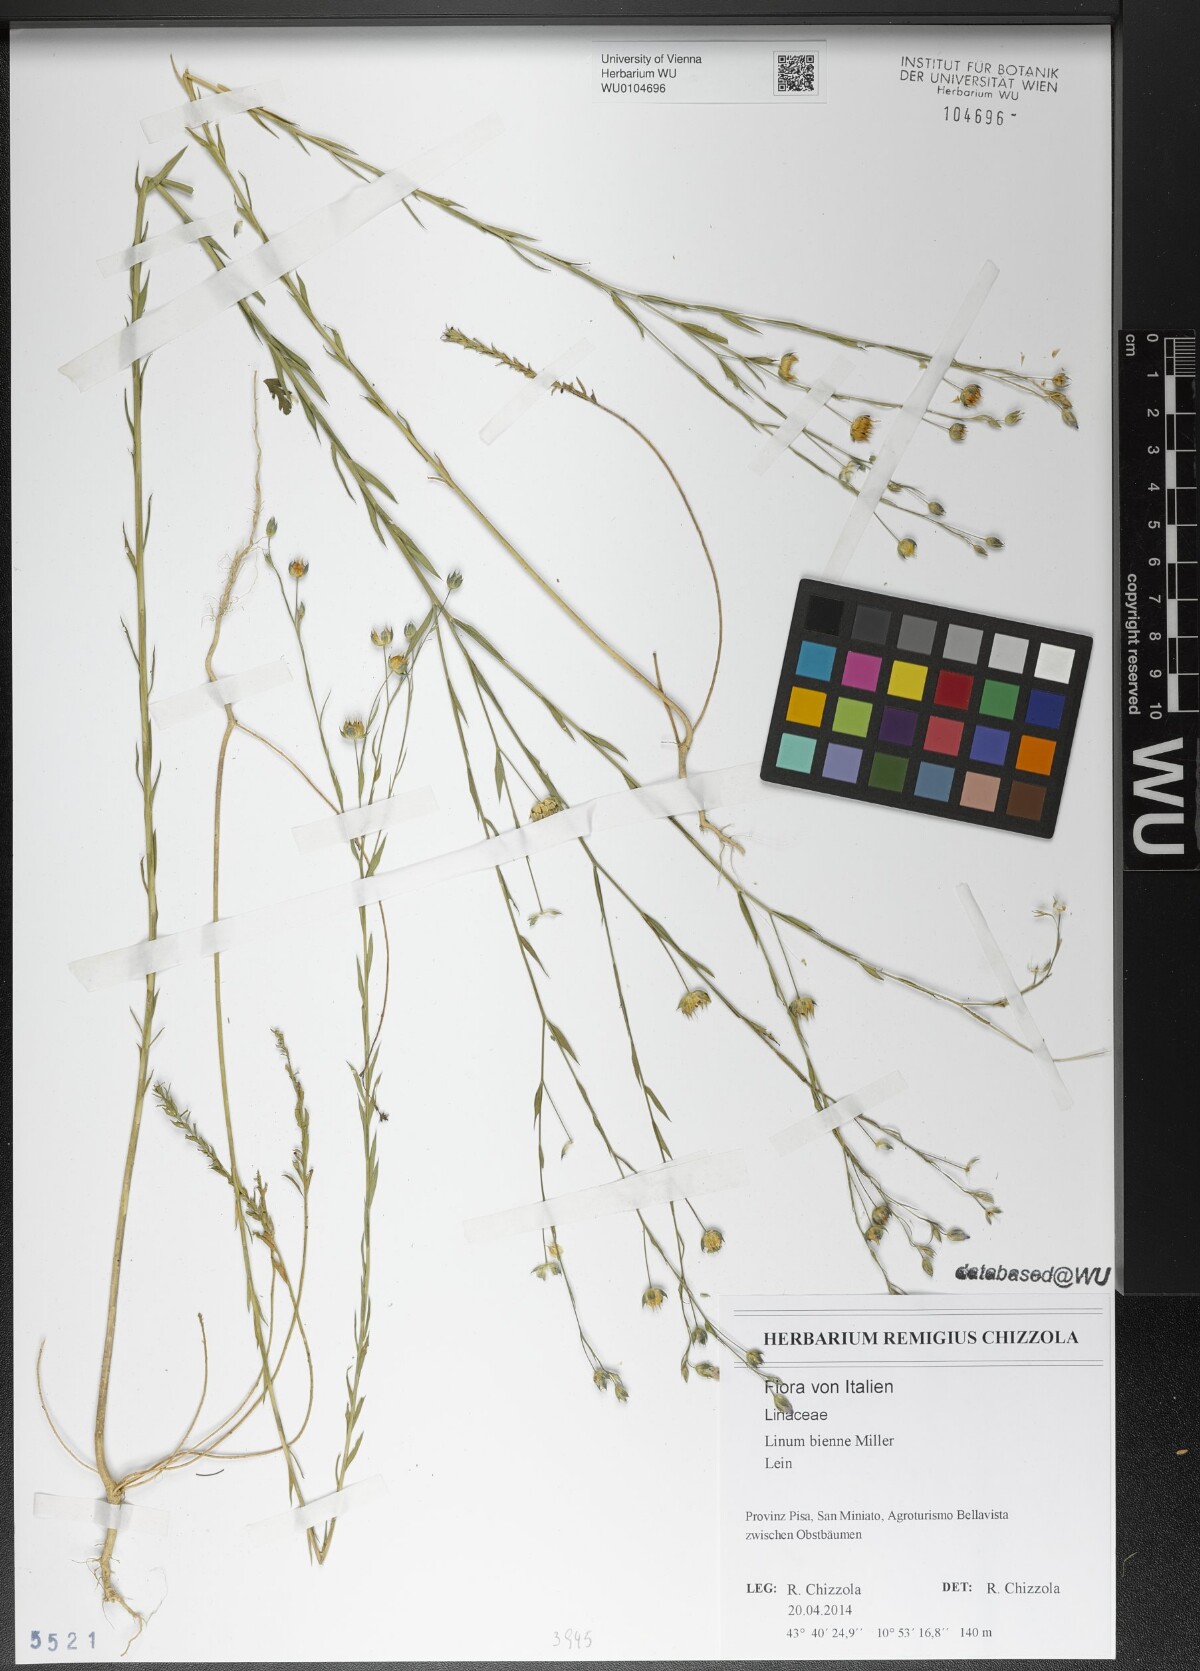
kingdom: Plantae
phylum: Tracheophyta
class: Magnoliopsida
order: Malpighiales
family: Linaceae
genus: Linum
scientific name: Linum bienne
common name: Pale flax
